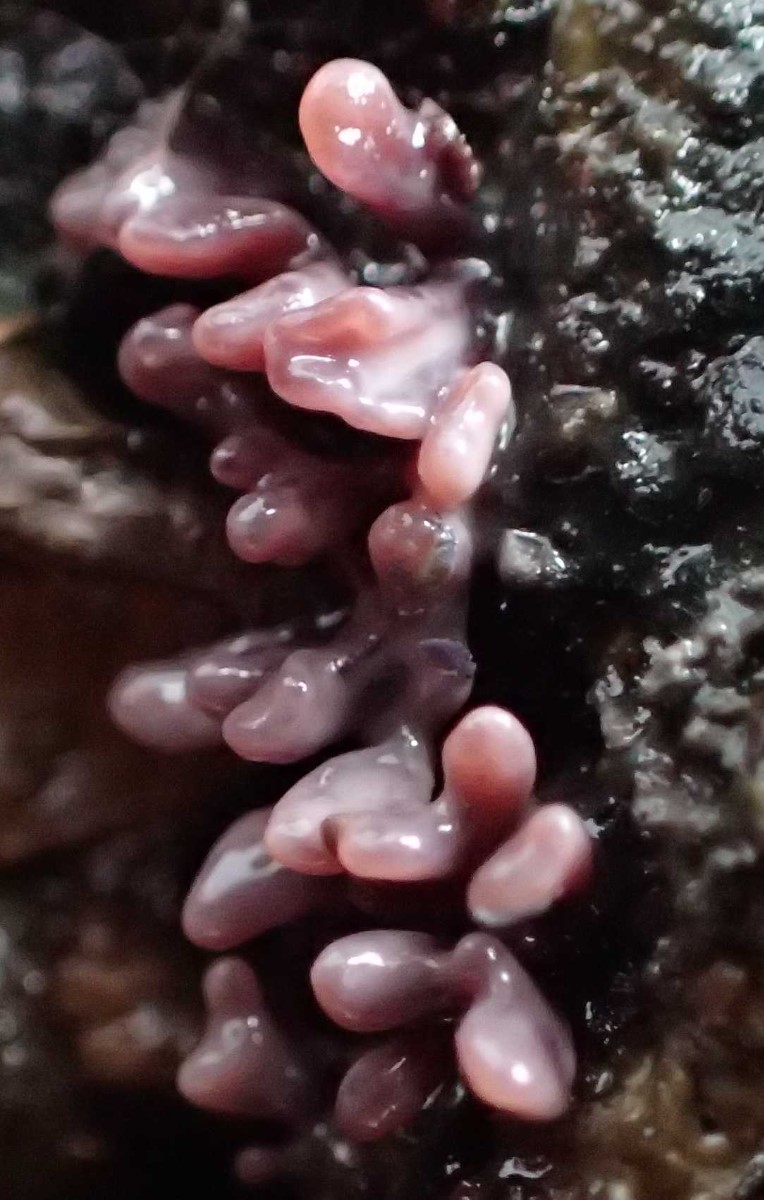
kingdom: Fungi
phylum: Ascomycota
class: Leotiomycetes
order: Helotiales
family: Gelatinodiscaceae
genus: Ascocoryne
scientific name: Ascocoryne sarcoides
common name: rødlilla sejskive
